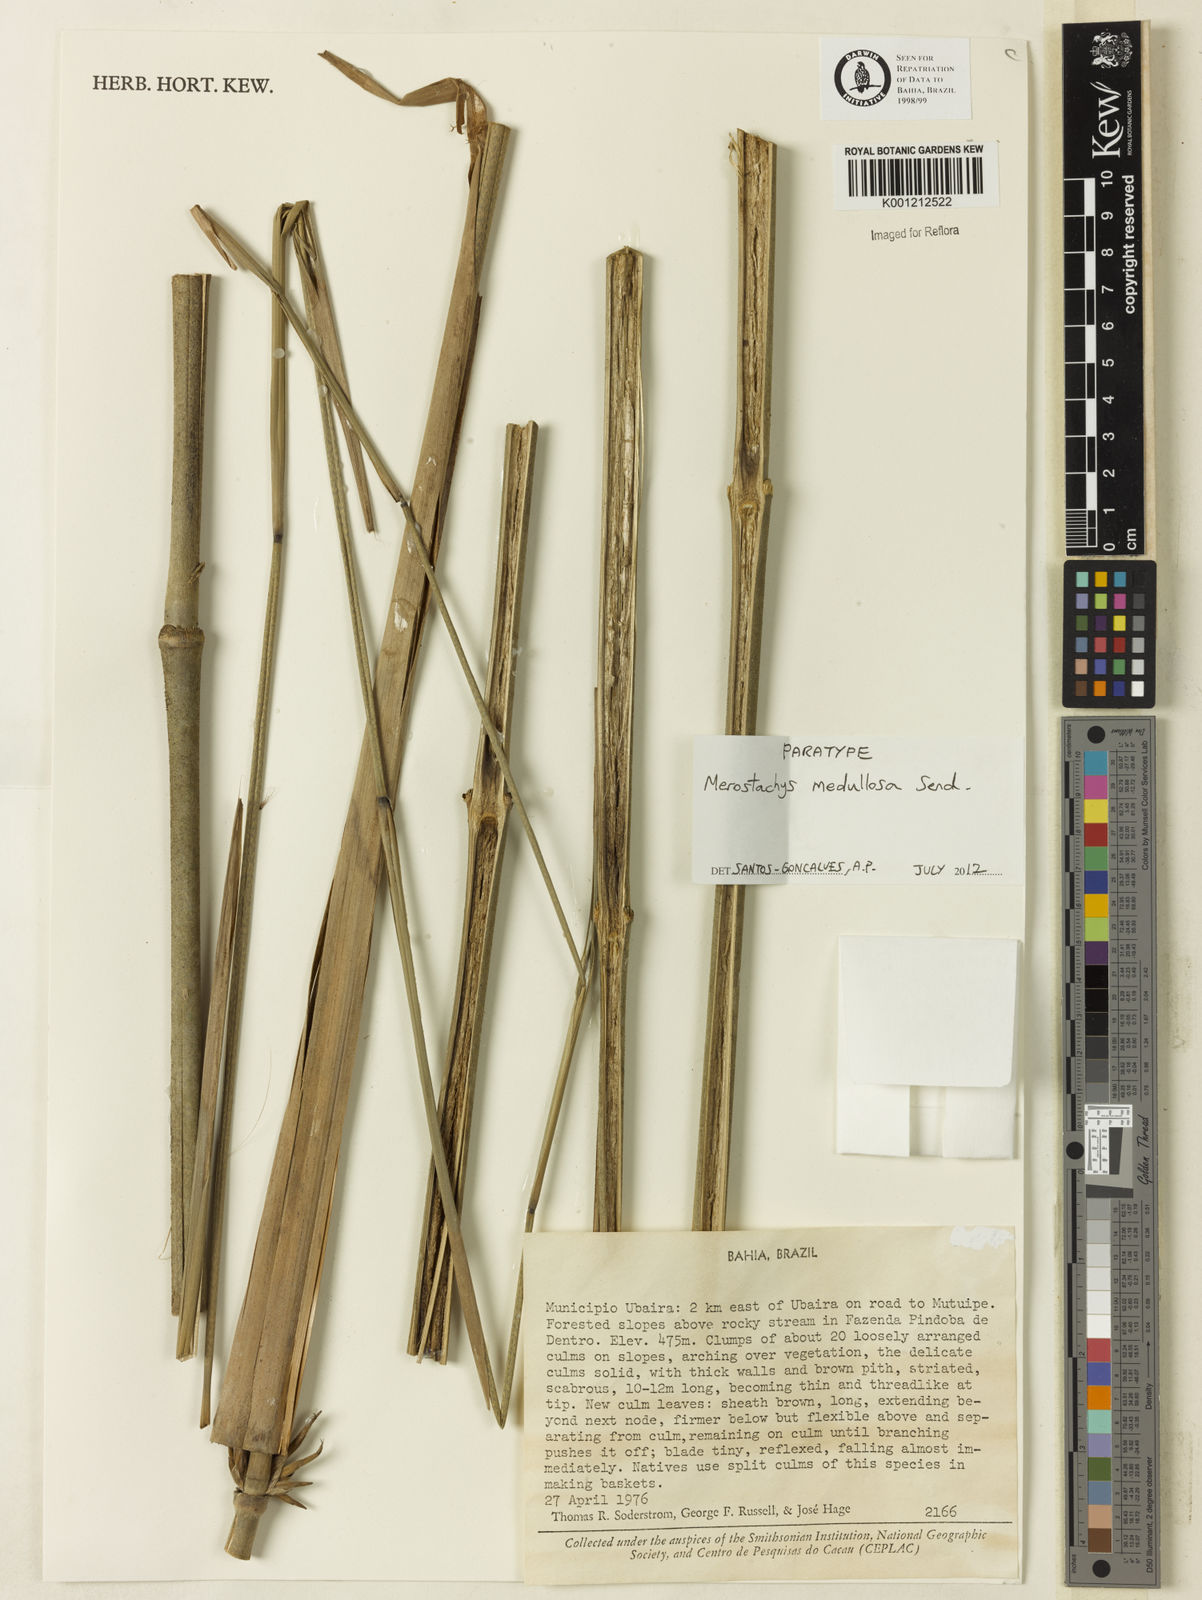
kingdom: Plantae
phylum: Tracheophyta
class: Liliopsida
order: Poales
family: Poaceae
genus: Merostachys
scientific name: Merostachys medullosa
